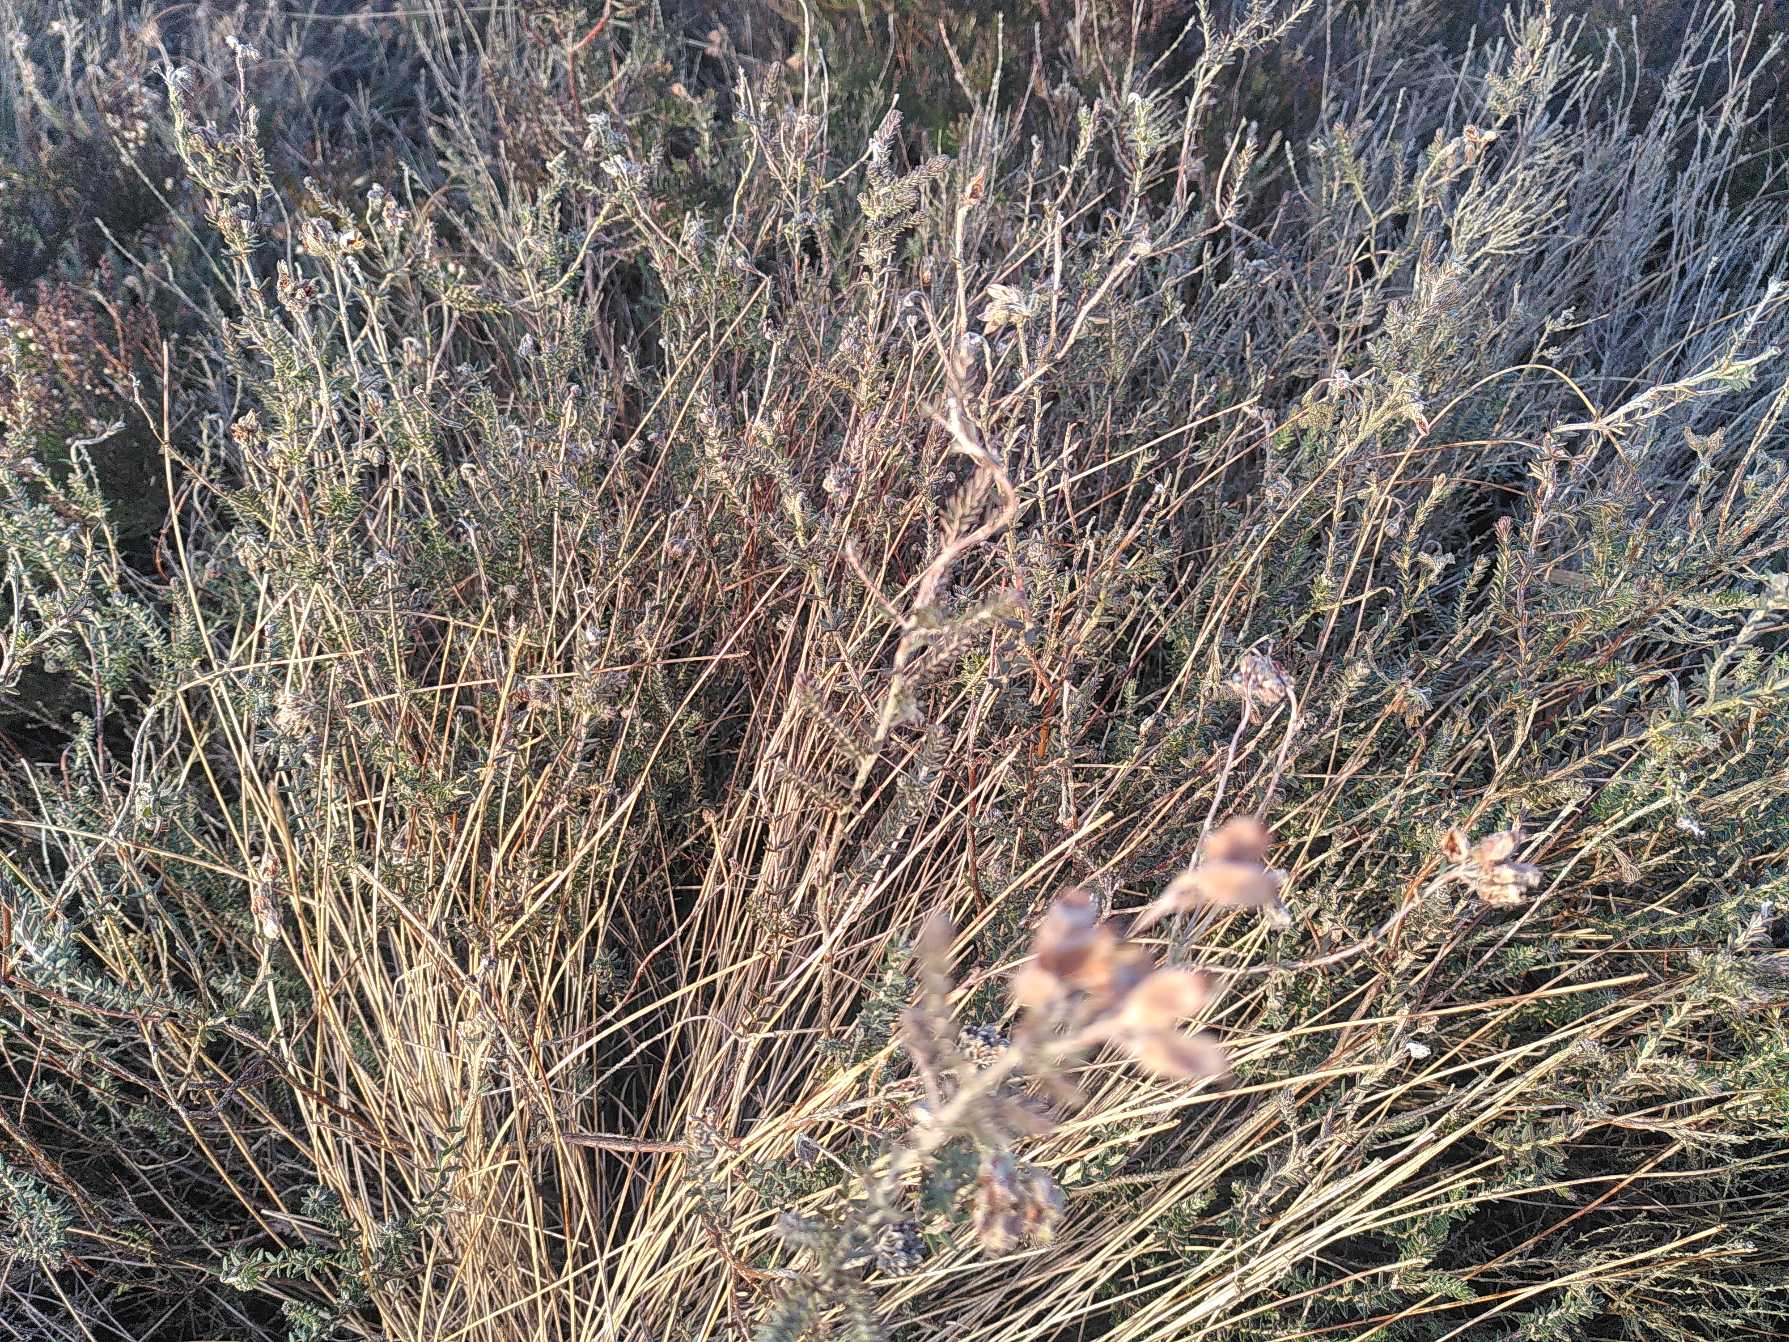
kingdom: Plantae
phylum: Tracheophyta
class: Magnoliopsida
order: Ericales
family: Ericaceae
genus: Erica
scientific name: Erica tetralix
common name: Klokkelyng
